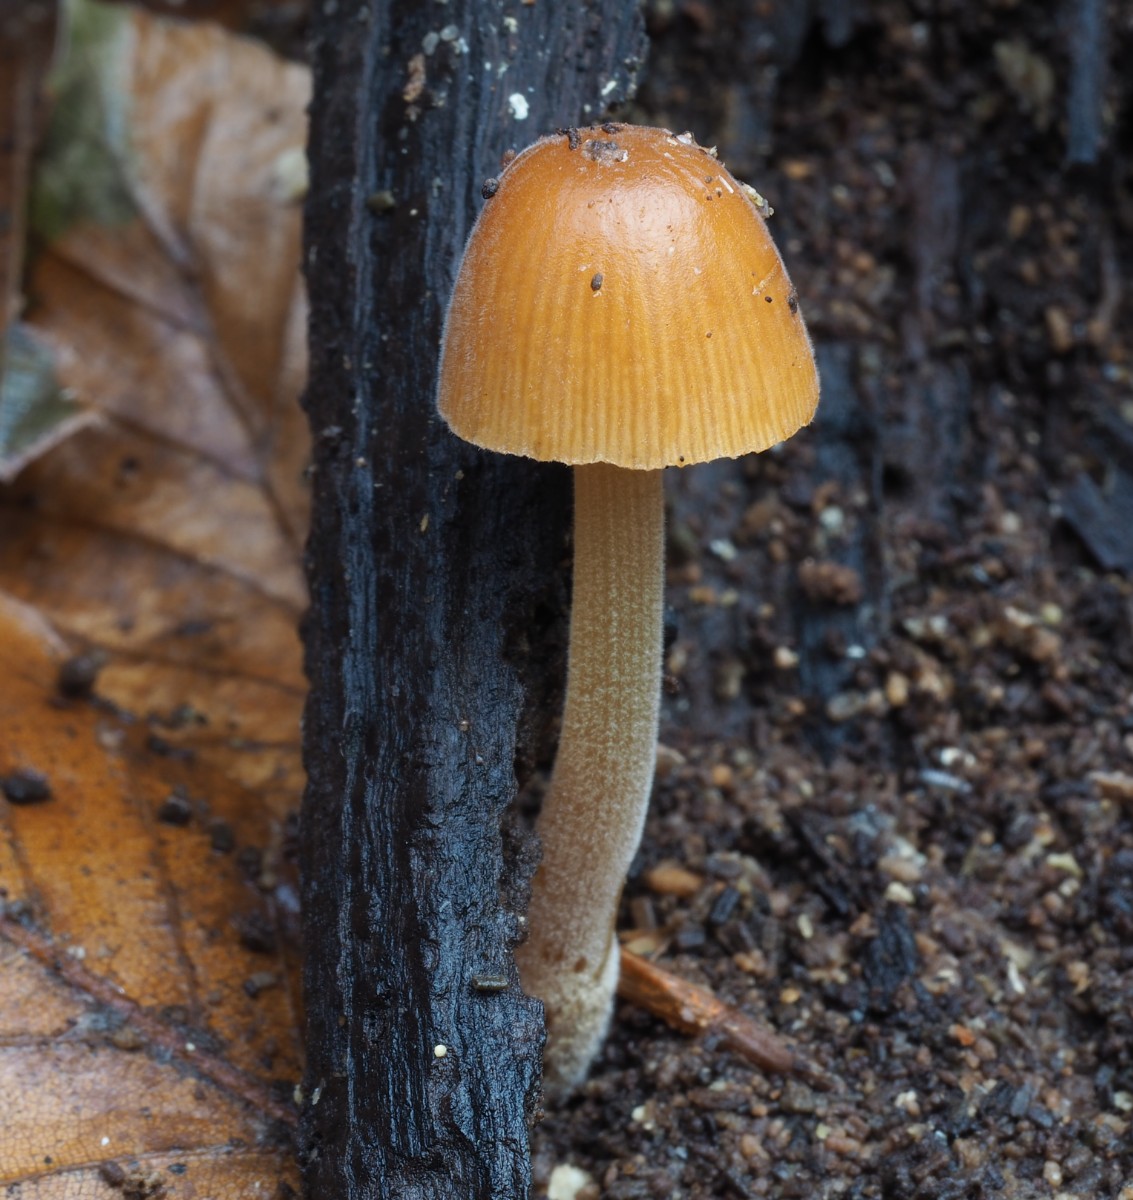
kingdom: Fungi
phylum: Basidiomycota
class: Agaricomycetes
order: Agaricales
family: Bolbitiaceae
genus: Conocybe
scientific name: Conocybe subpubescens
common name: krat-keglehat
